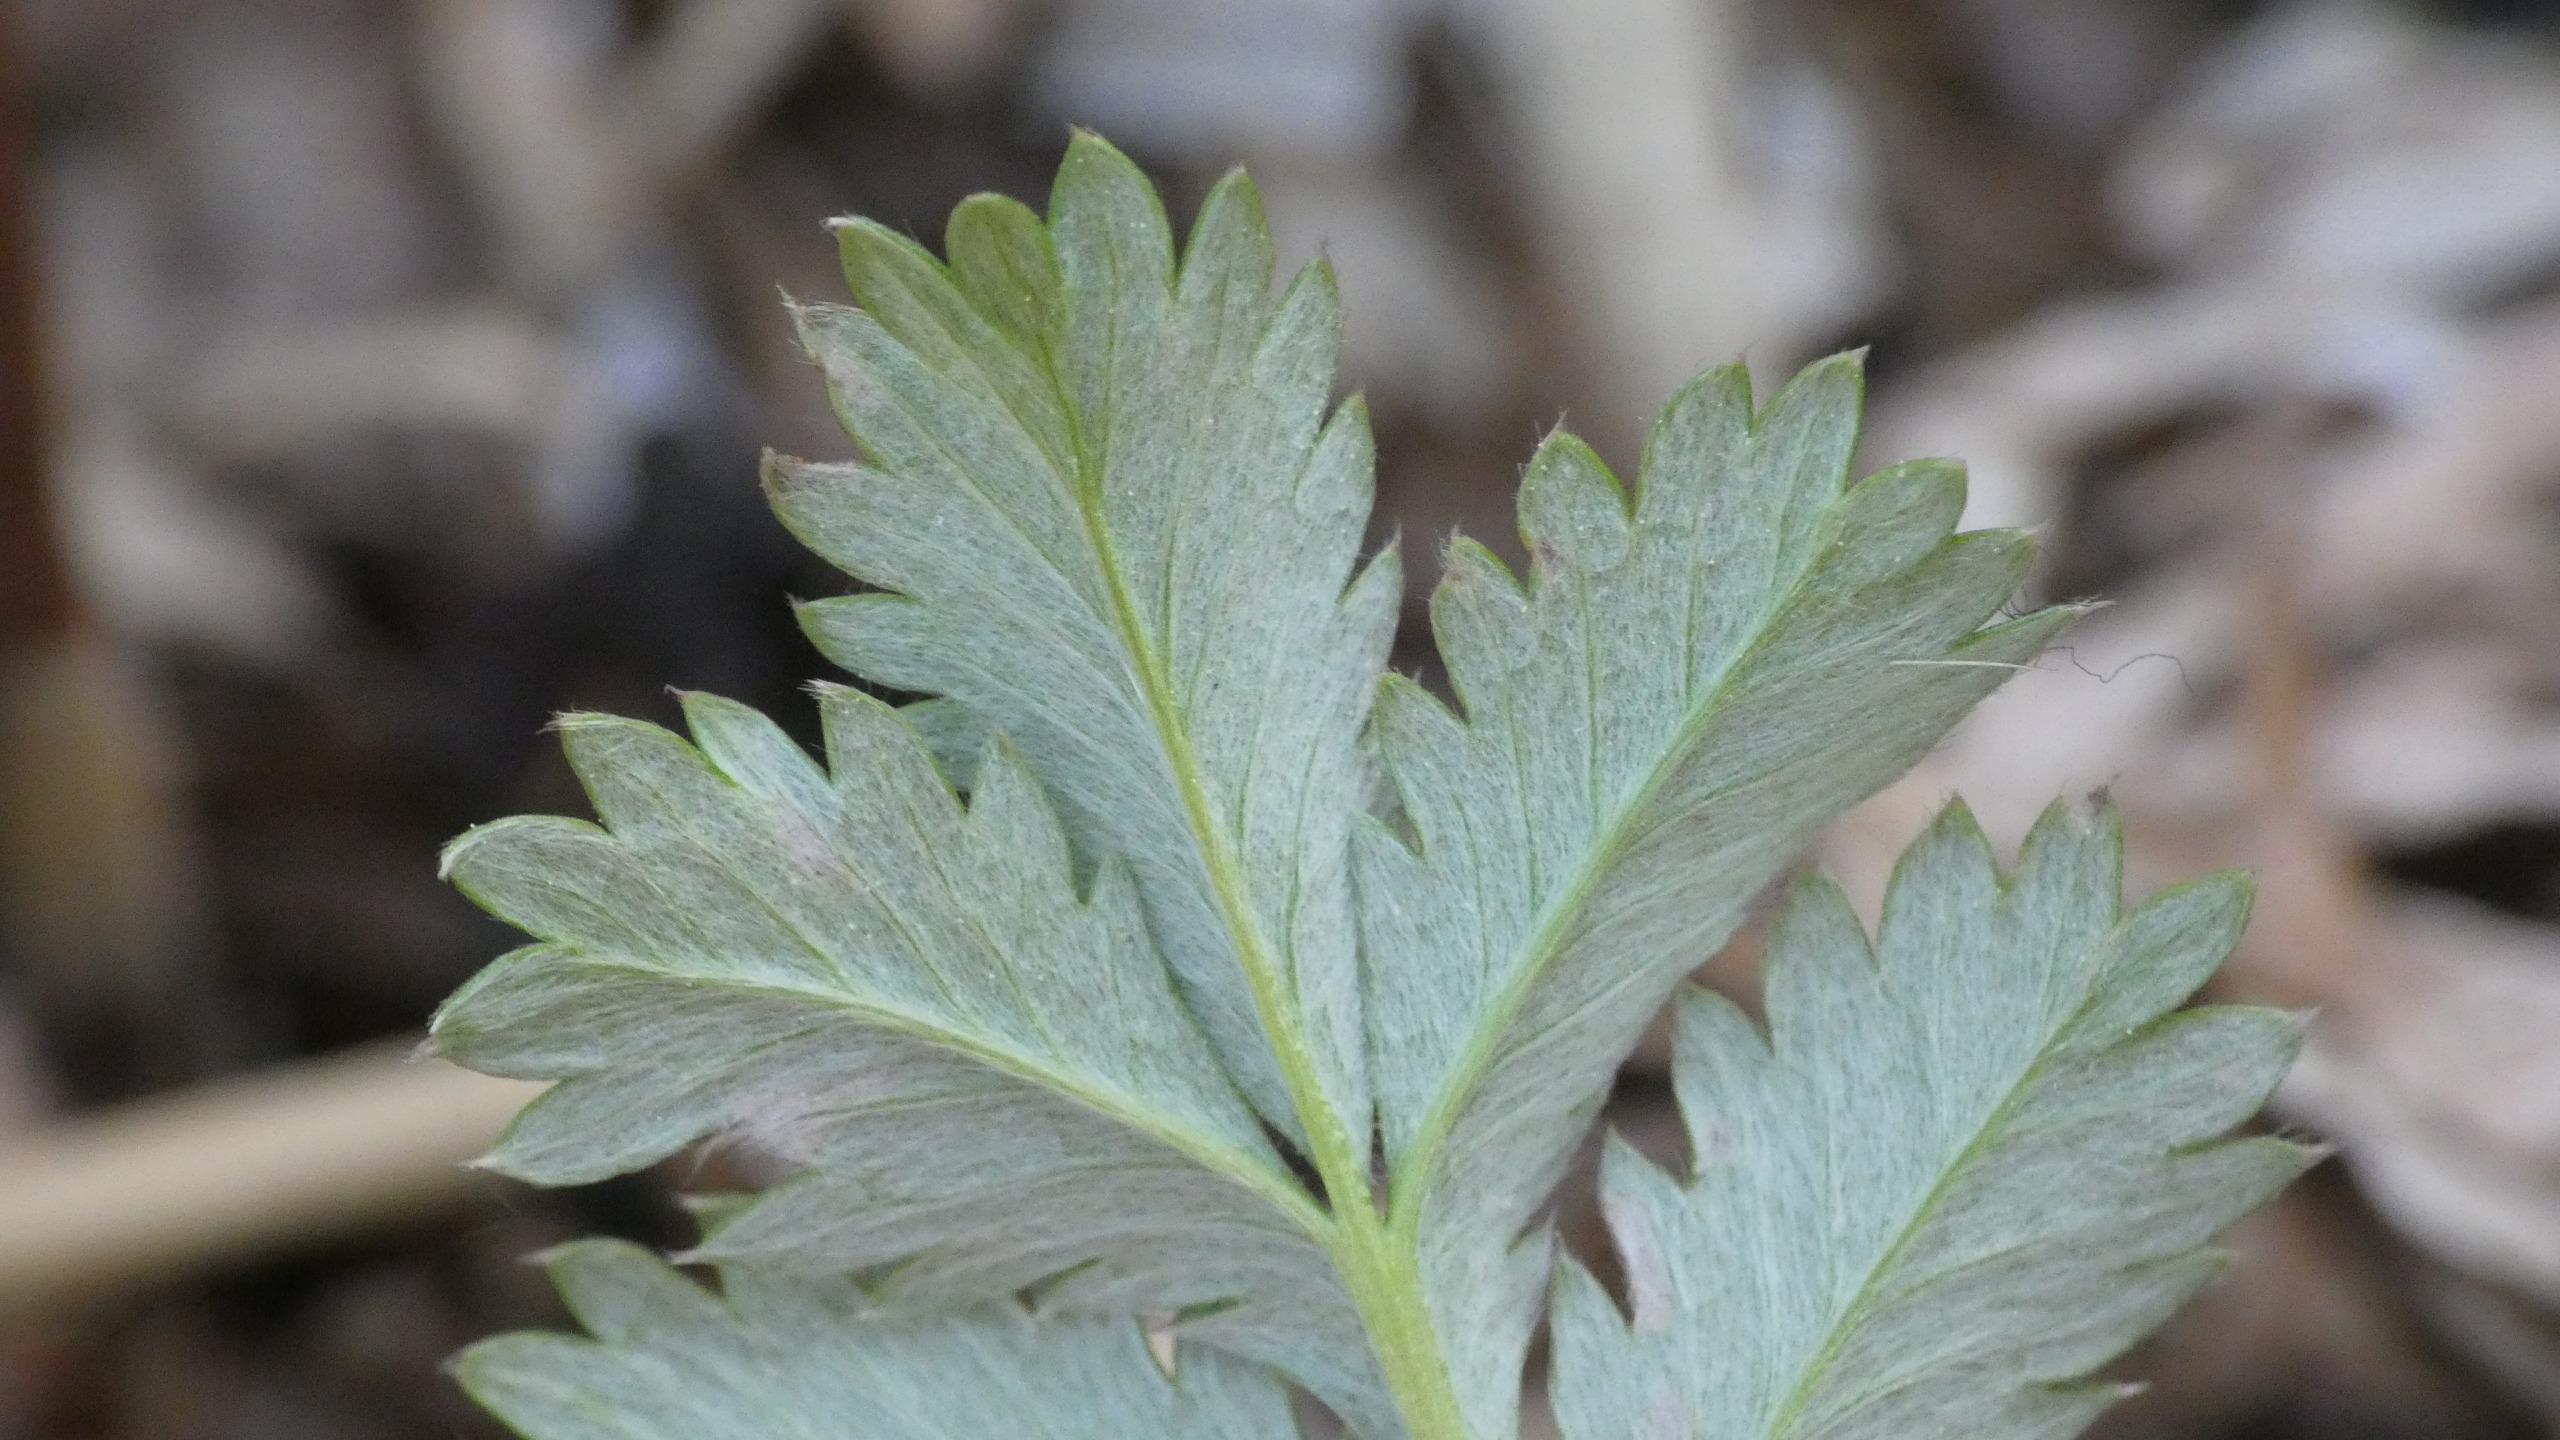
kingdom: Plantae
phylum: Tracheophyta
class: Magnoliopsida
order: Rosales
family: Rosaceae
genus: Argentina
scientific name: Argentina anserina
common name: Gåsepotentil
